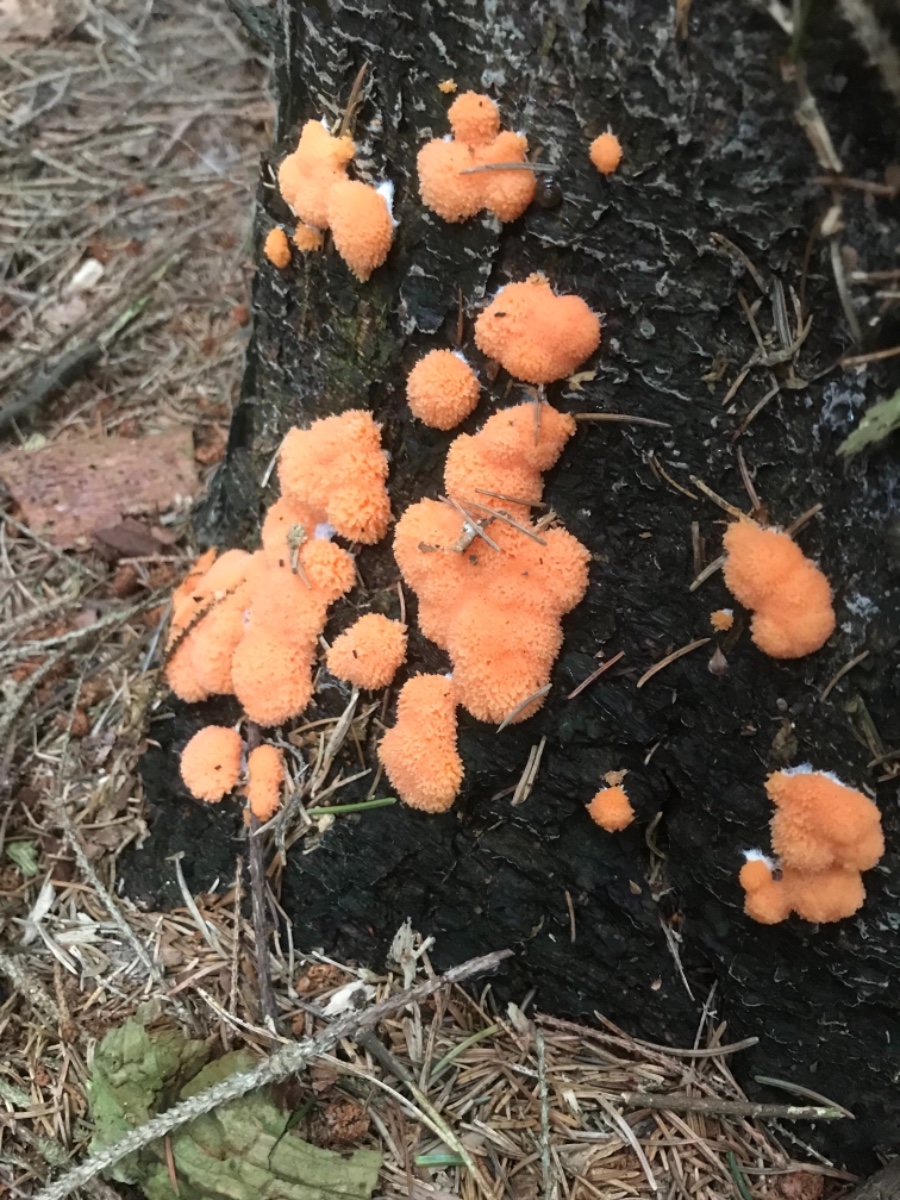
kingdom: Protozoa
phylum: Mycetozoa
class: Myxomycetes
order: Cribrariales
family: Tubiferaceae
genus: Tubifera
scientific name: Tubifera ferruginosa
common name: kanel-støvrør
